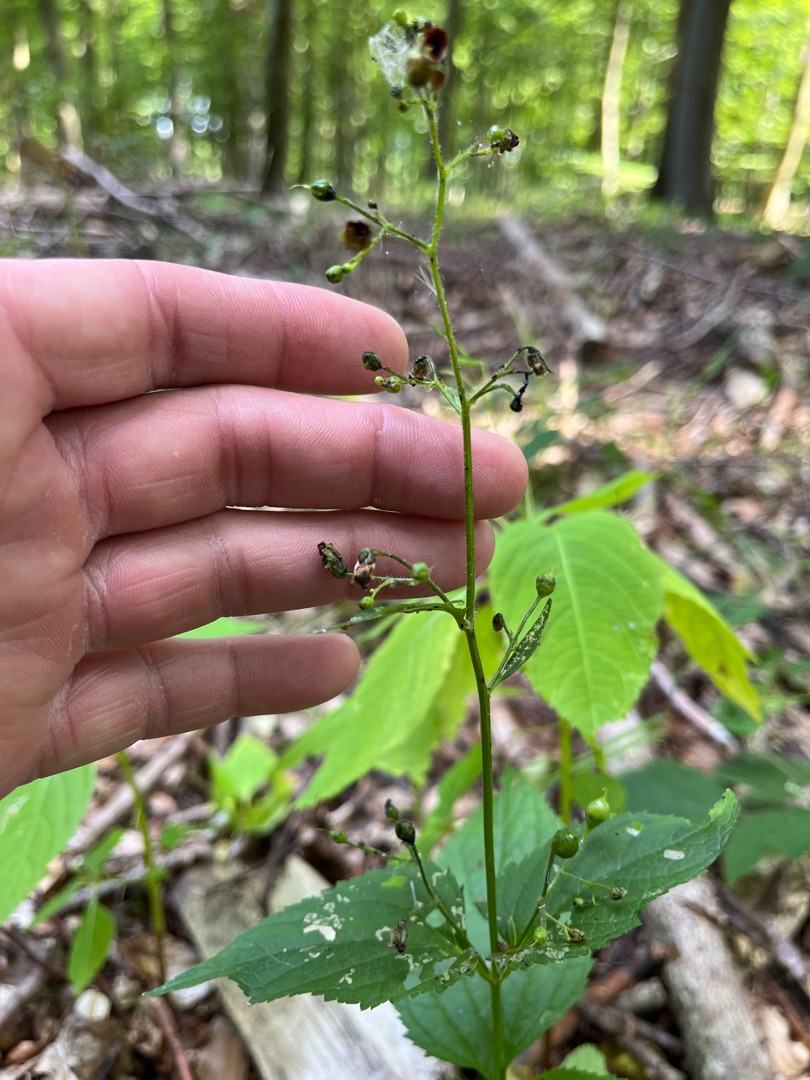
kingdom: Plantae
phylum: Tracheophyta
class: Magnoliopsida
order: Lamiales
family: Scrophulariaceae
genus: Scrophularia
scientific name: Scrophularia nodosa
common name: Knoldet brunrod
